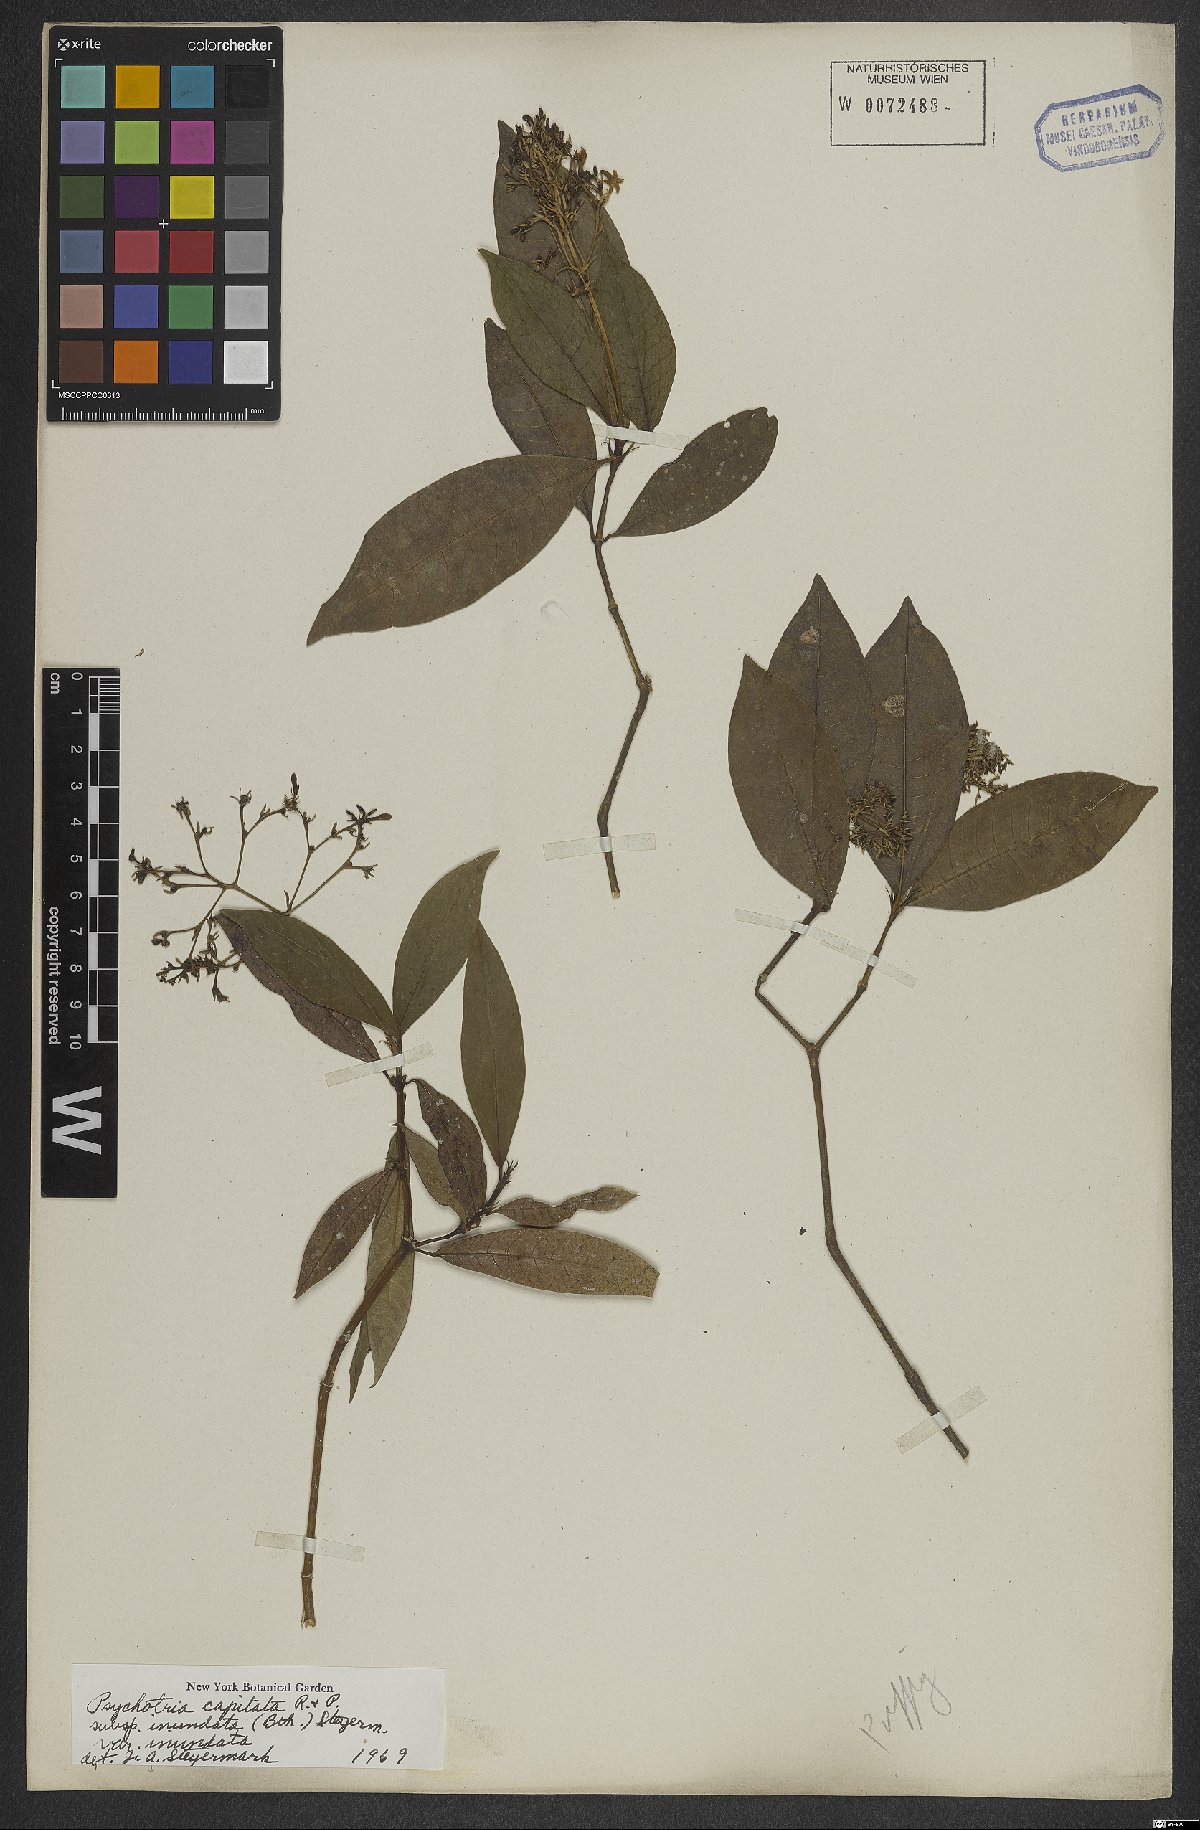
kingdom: Plantae
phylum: Tracheophyta
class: Magnoliopsida
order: Gentianales
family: Rubiaceae
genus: Palicourea
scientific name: Palicourea violacea
